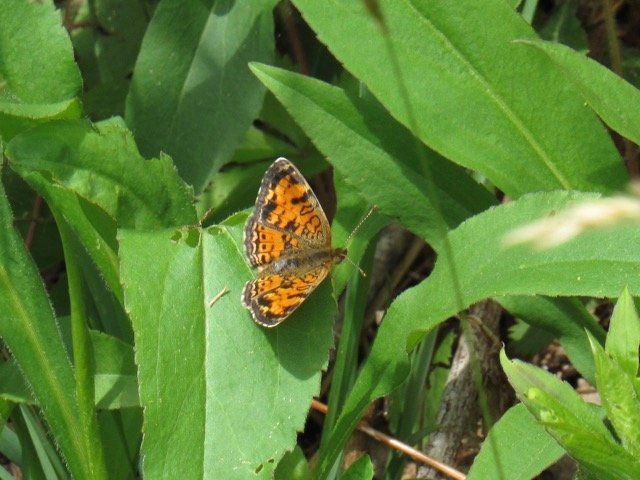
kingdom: Animalia
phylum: Arthropoda
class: Insecta
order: Lepidoptera
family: Nymphalidae
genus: Phyciodes
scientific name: Phyciodes tharos
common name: Pearl Crescent
